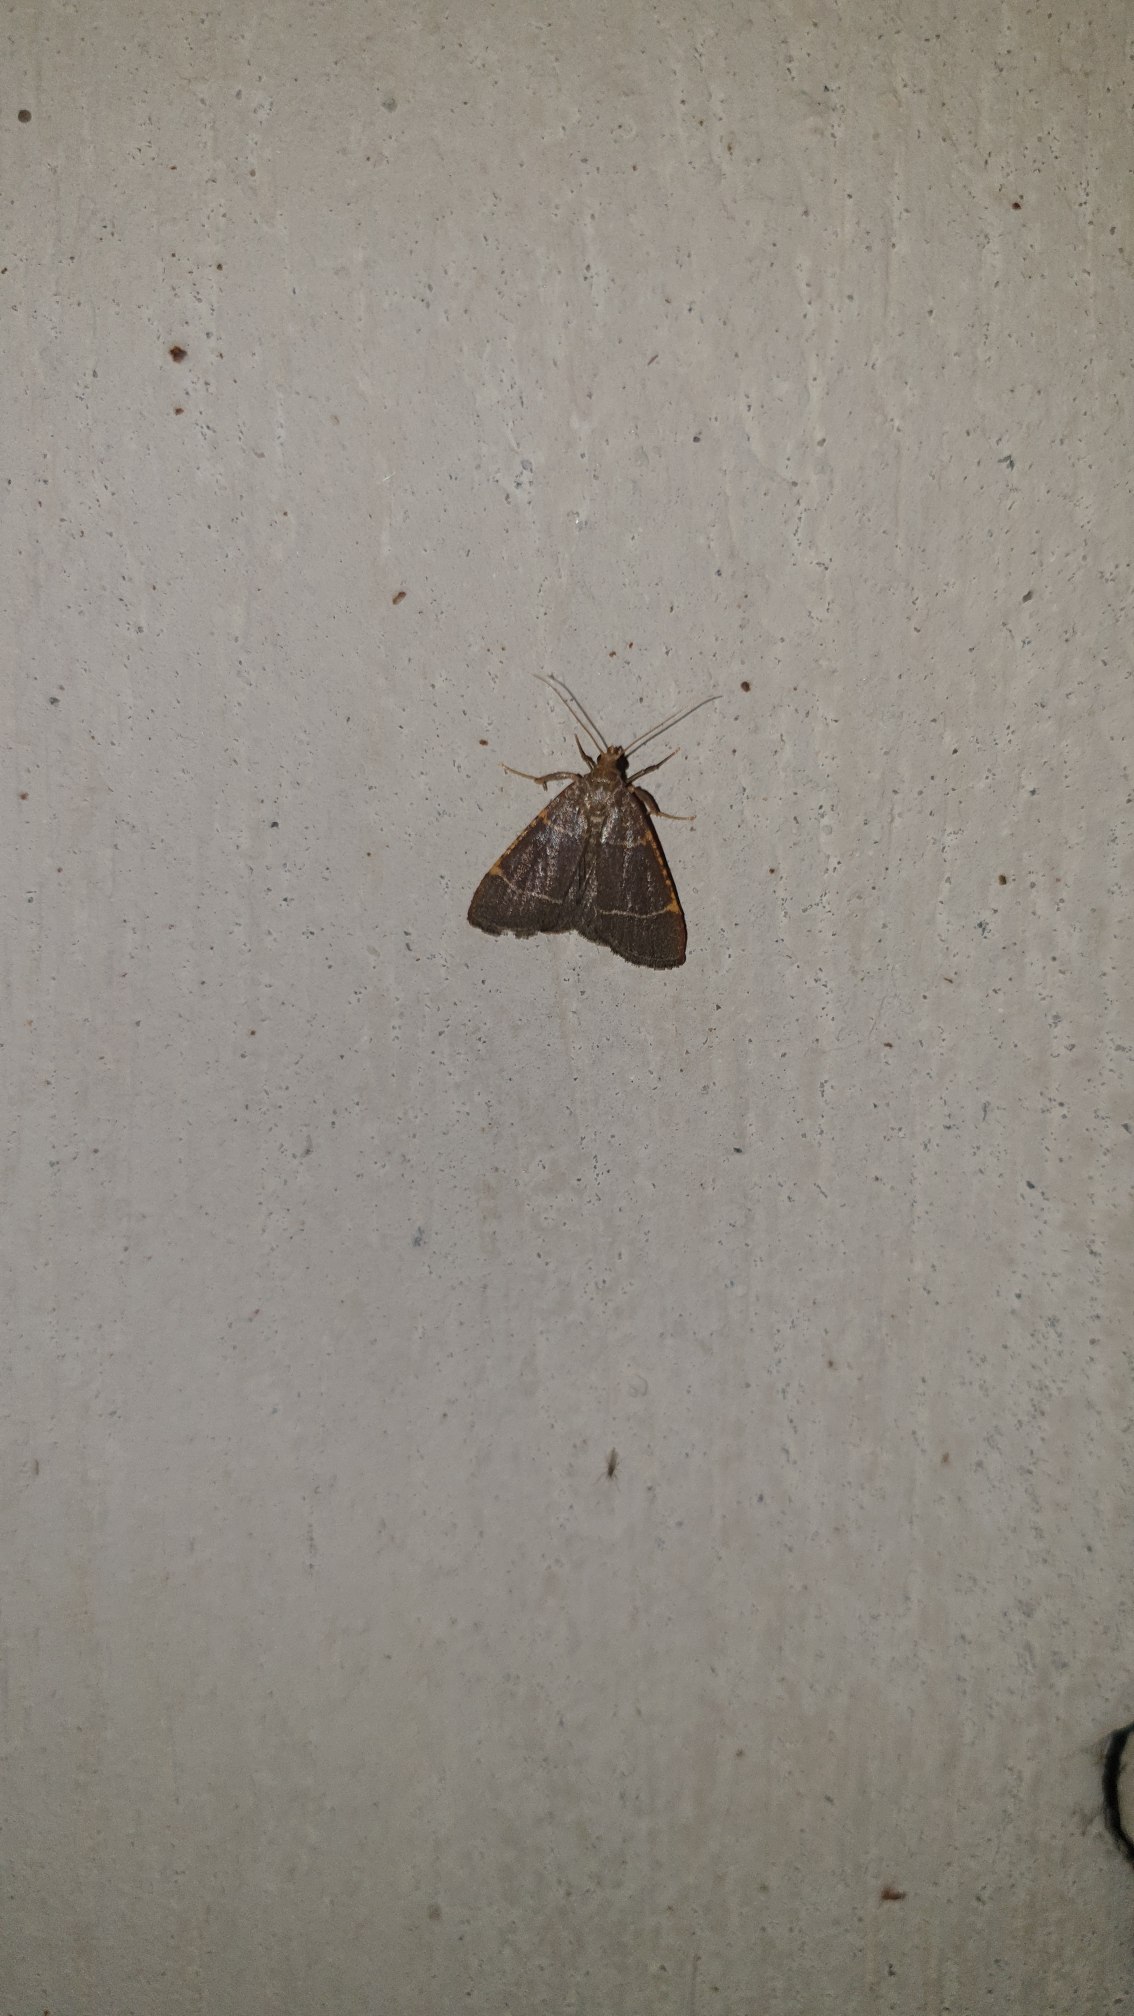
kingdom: Animalia
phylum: Arthropoda
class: Insecta
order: Lepidoptera
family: Pyralidae
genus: Hypsopygia
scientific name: Hypsopygia glaucinalis
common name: Blågråt herkuleshalvmøl
